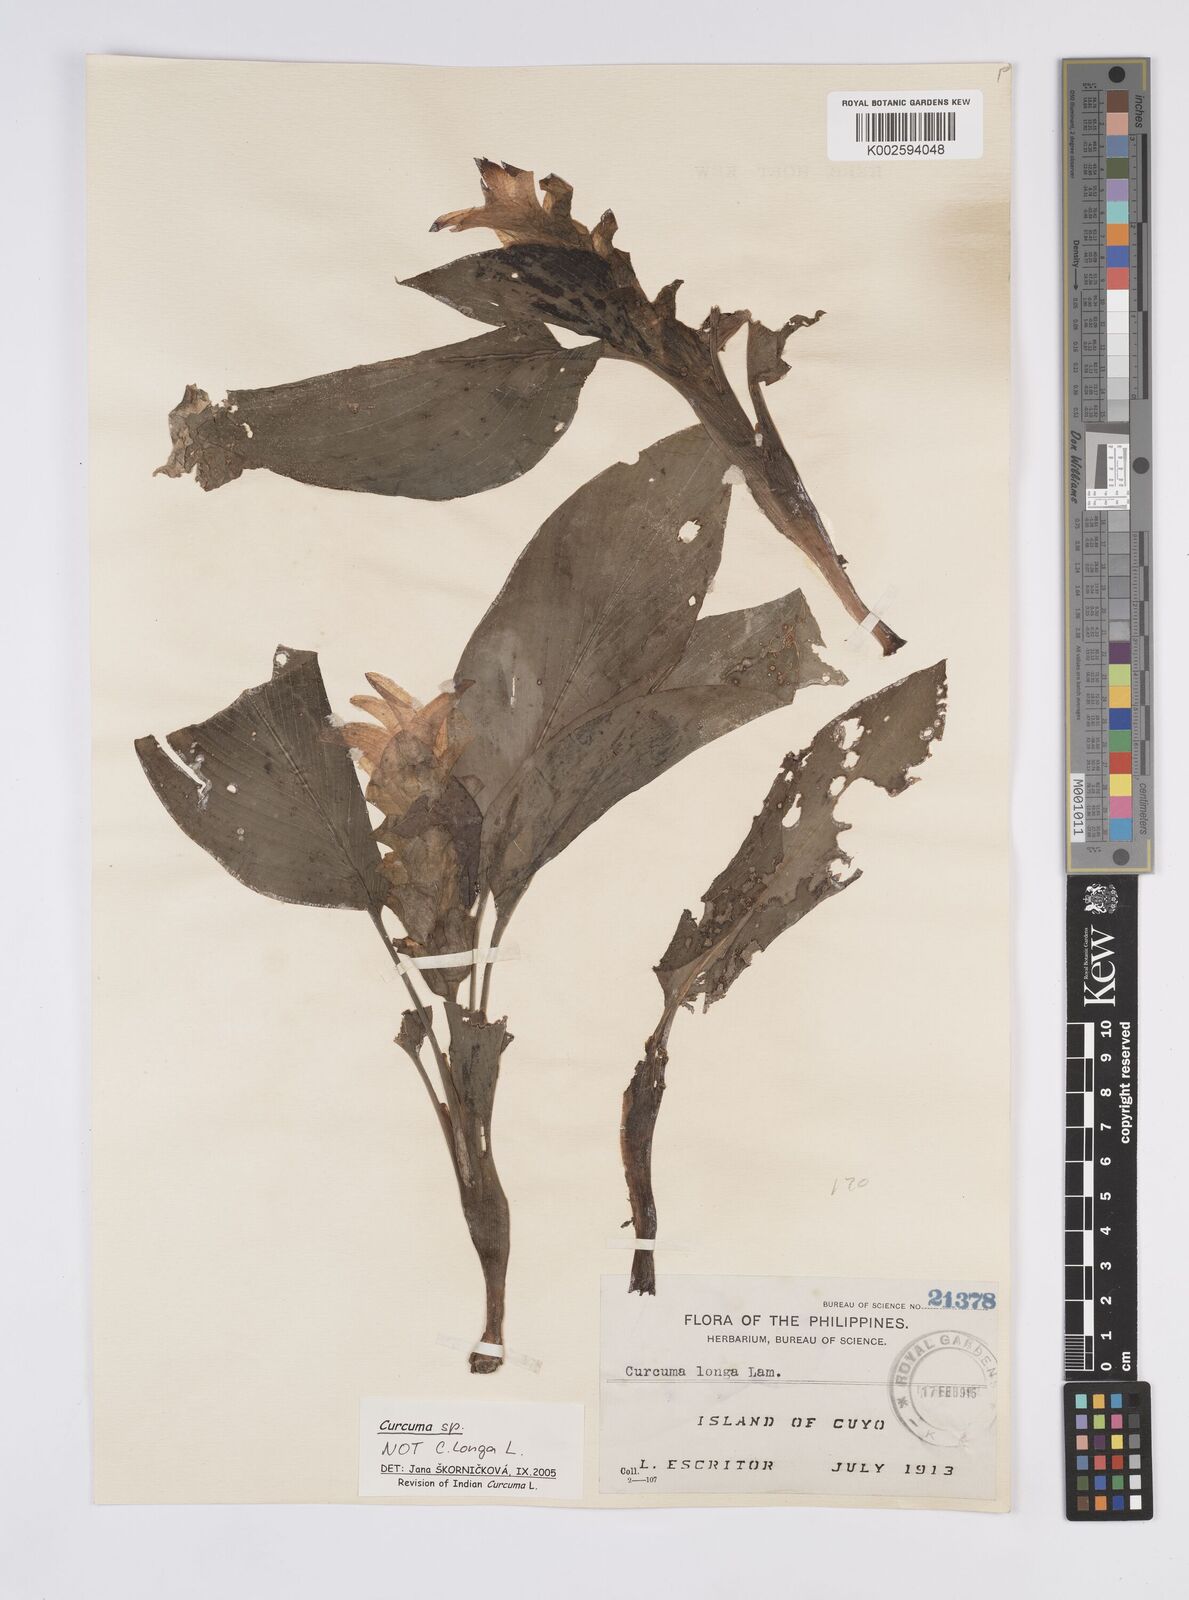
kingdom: Plantae
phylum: Tracheophyta
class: Liliopsida
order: Zingiberales
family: Zingiberaceae
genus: Curcuma
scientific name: Curcuma
